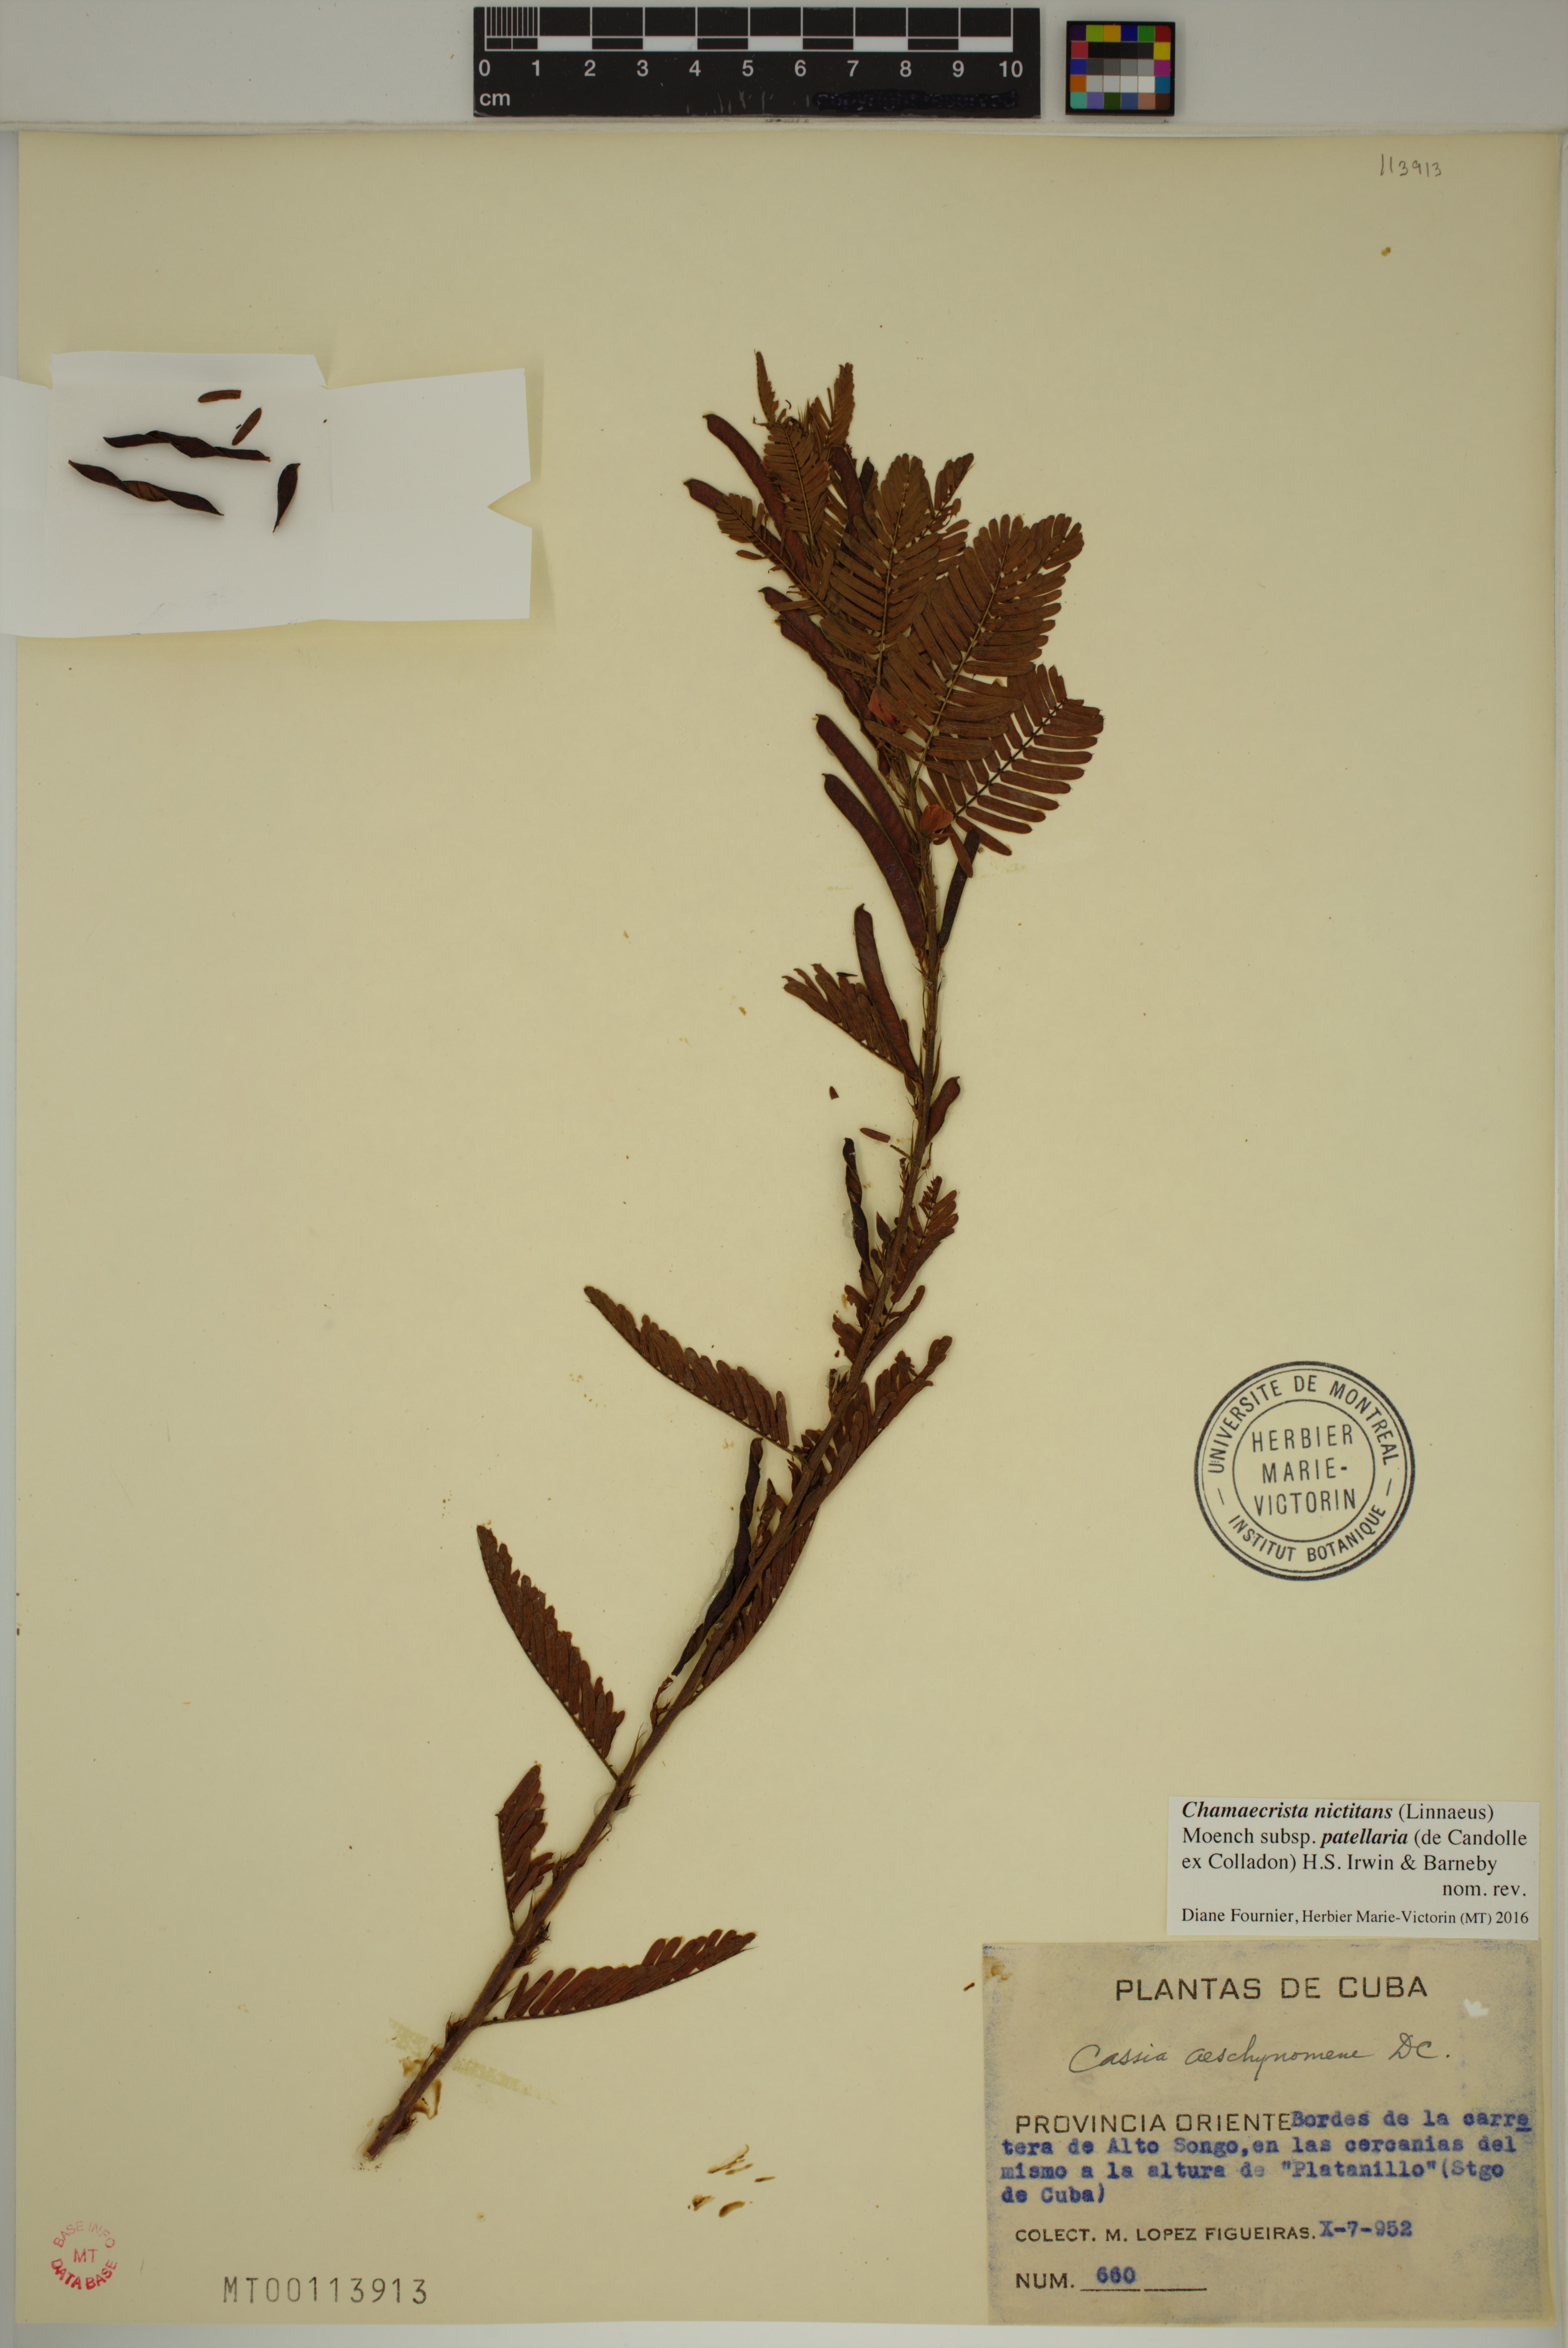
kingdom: Plantae
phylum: Tracheophyta
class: Magnoliopsida
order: Fabales
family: Fabaceae
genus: Chamaecrista
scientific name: Chamaecrista nictitans
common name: Sensitive cassia
